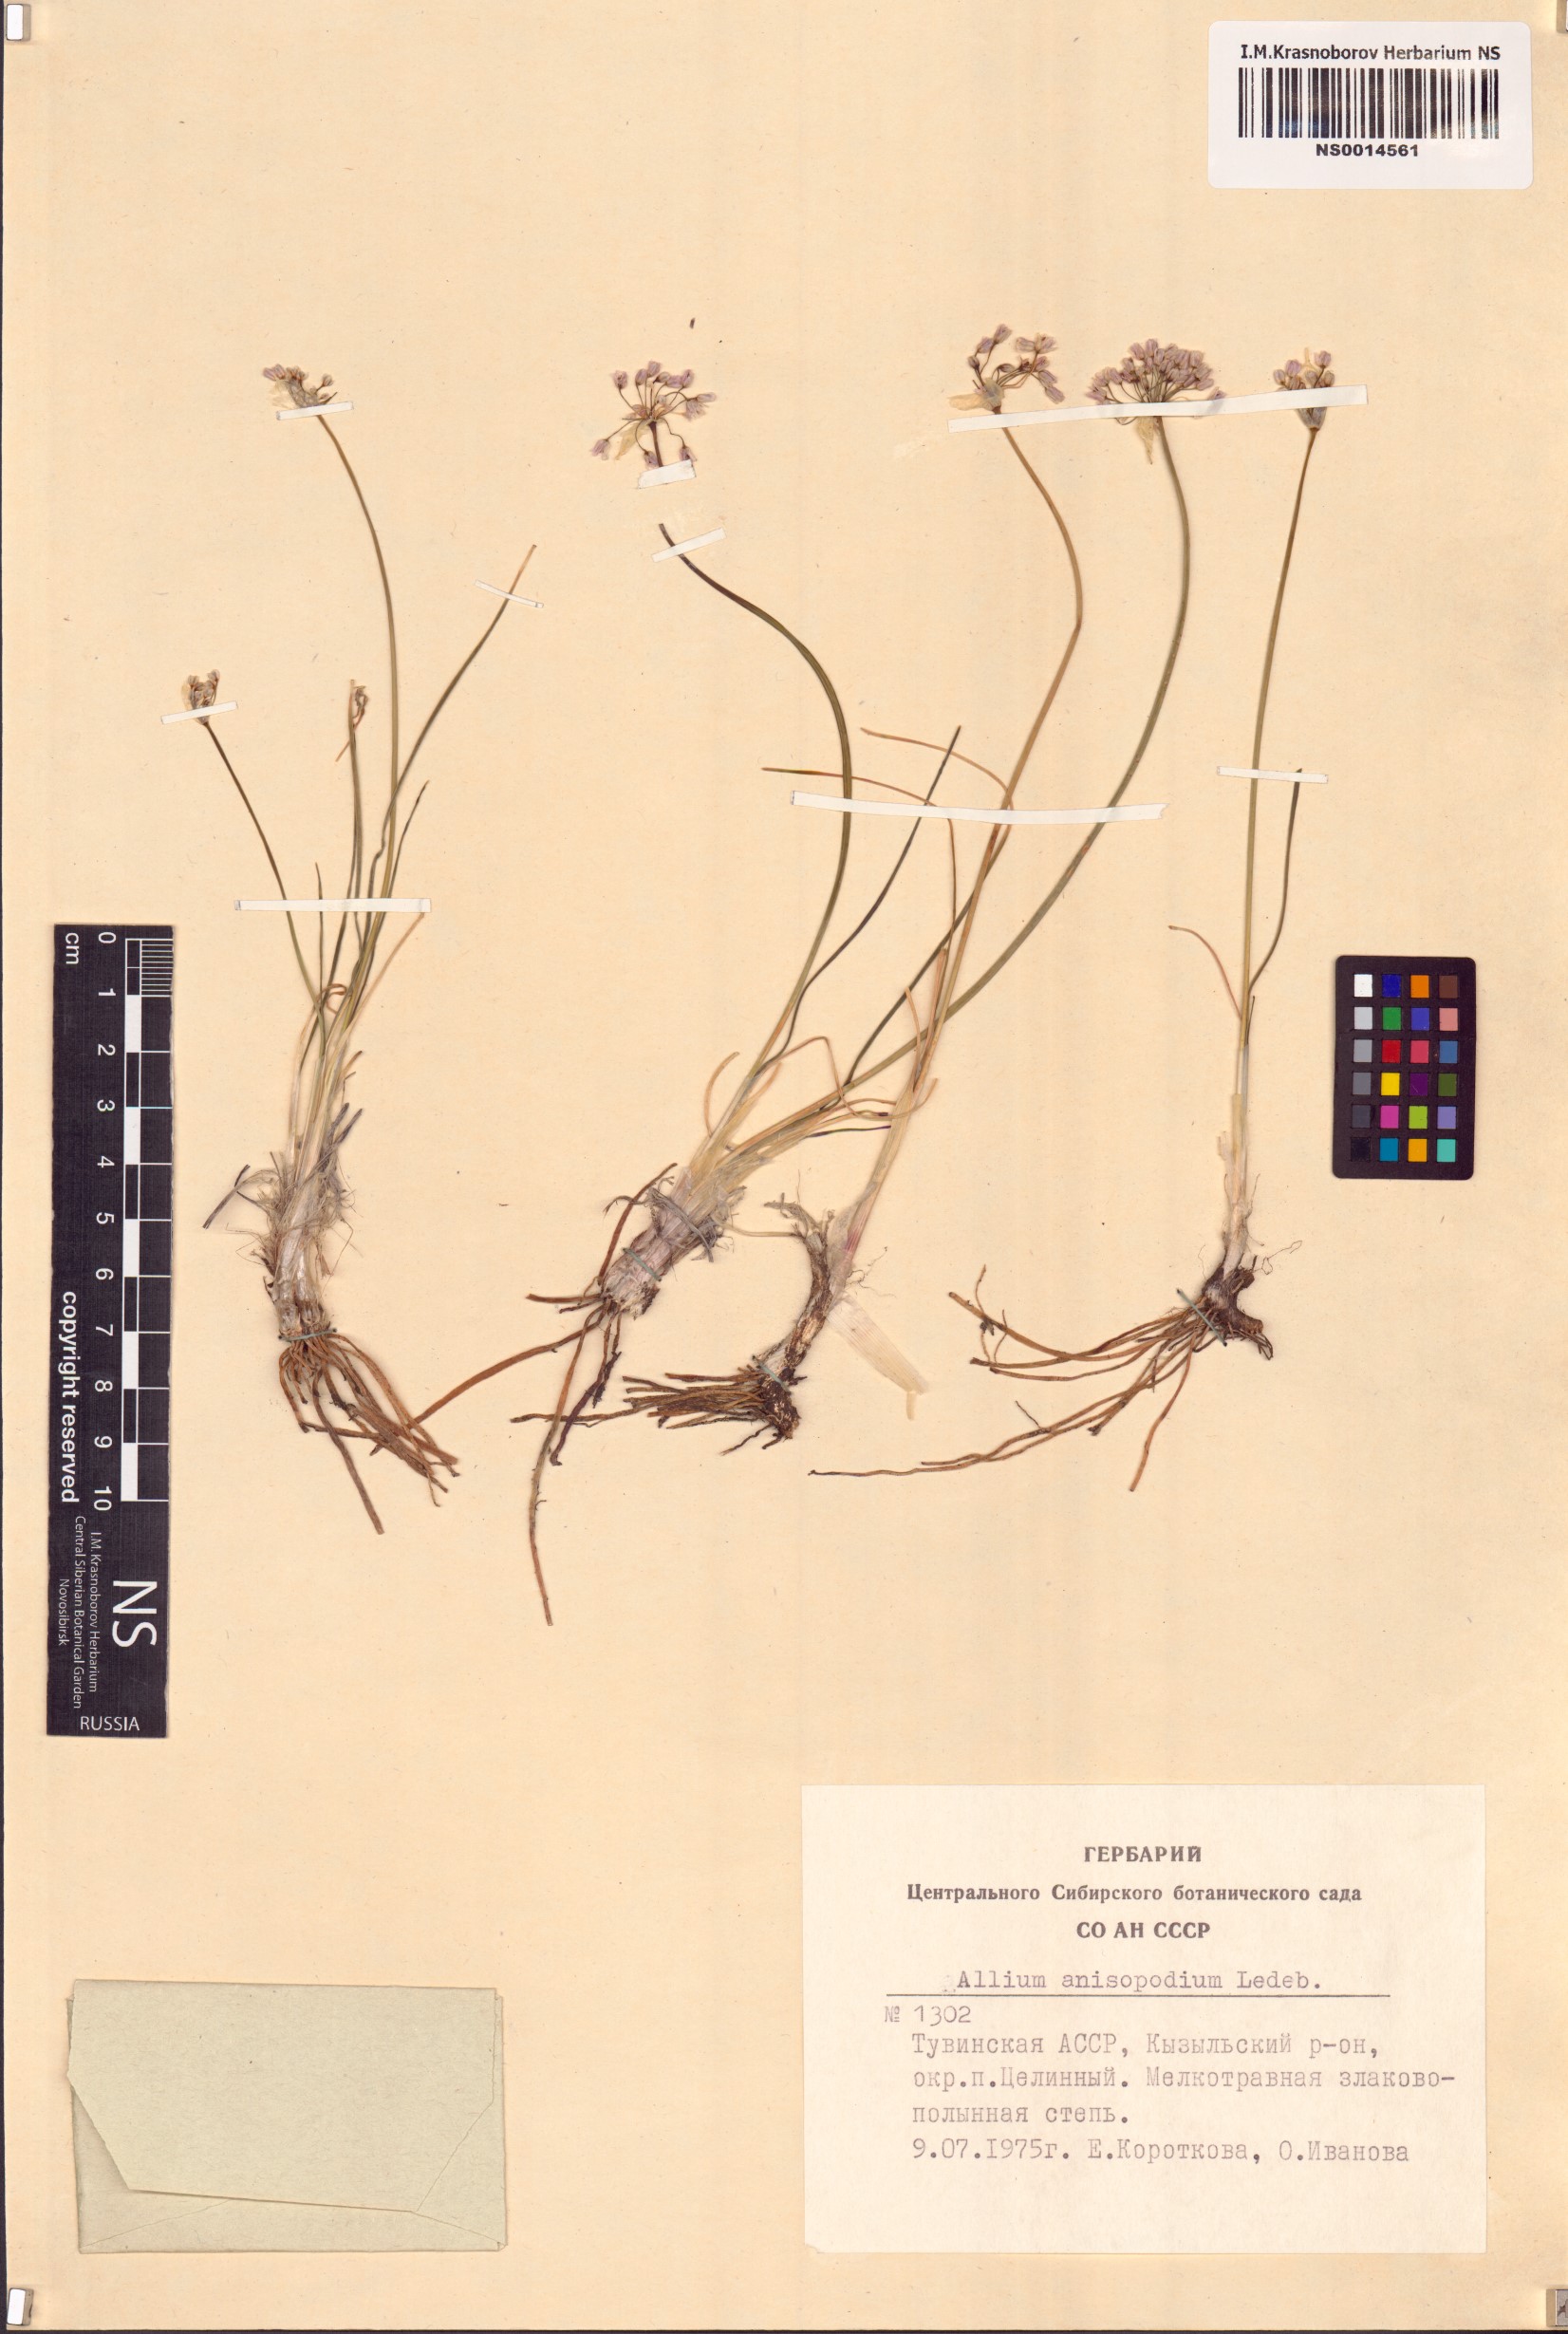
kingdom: Plantae
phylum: Tracheophyta
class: Liliopsida
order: Asparagales
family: Amaryllidaceae
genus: Allium
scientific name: Allium anisopodium
